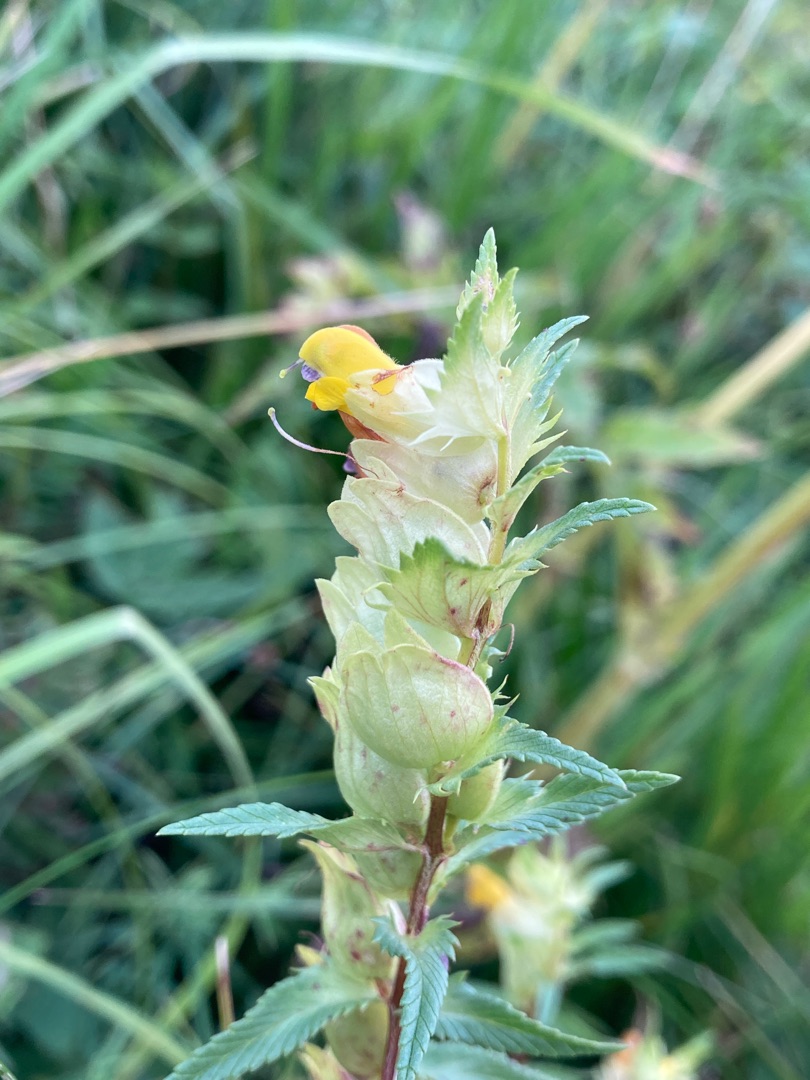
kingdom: Plantae
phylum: Tracheophyta
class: Magnoliopsida
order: Lamiales
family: Orobanchaceae
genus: Rhinanthus
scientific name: Rhinanthus
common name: Stor skjaller
